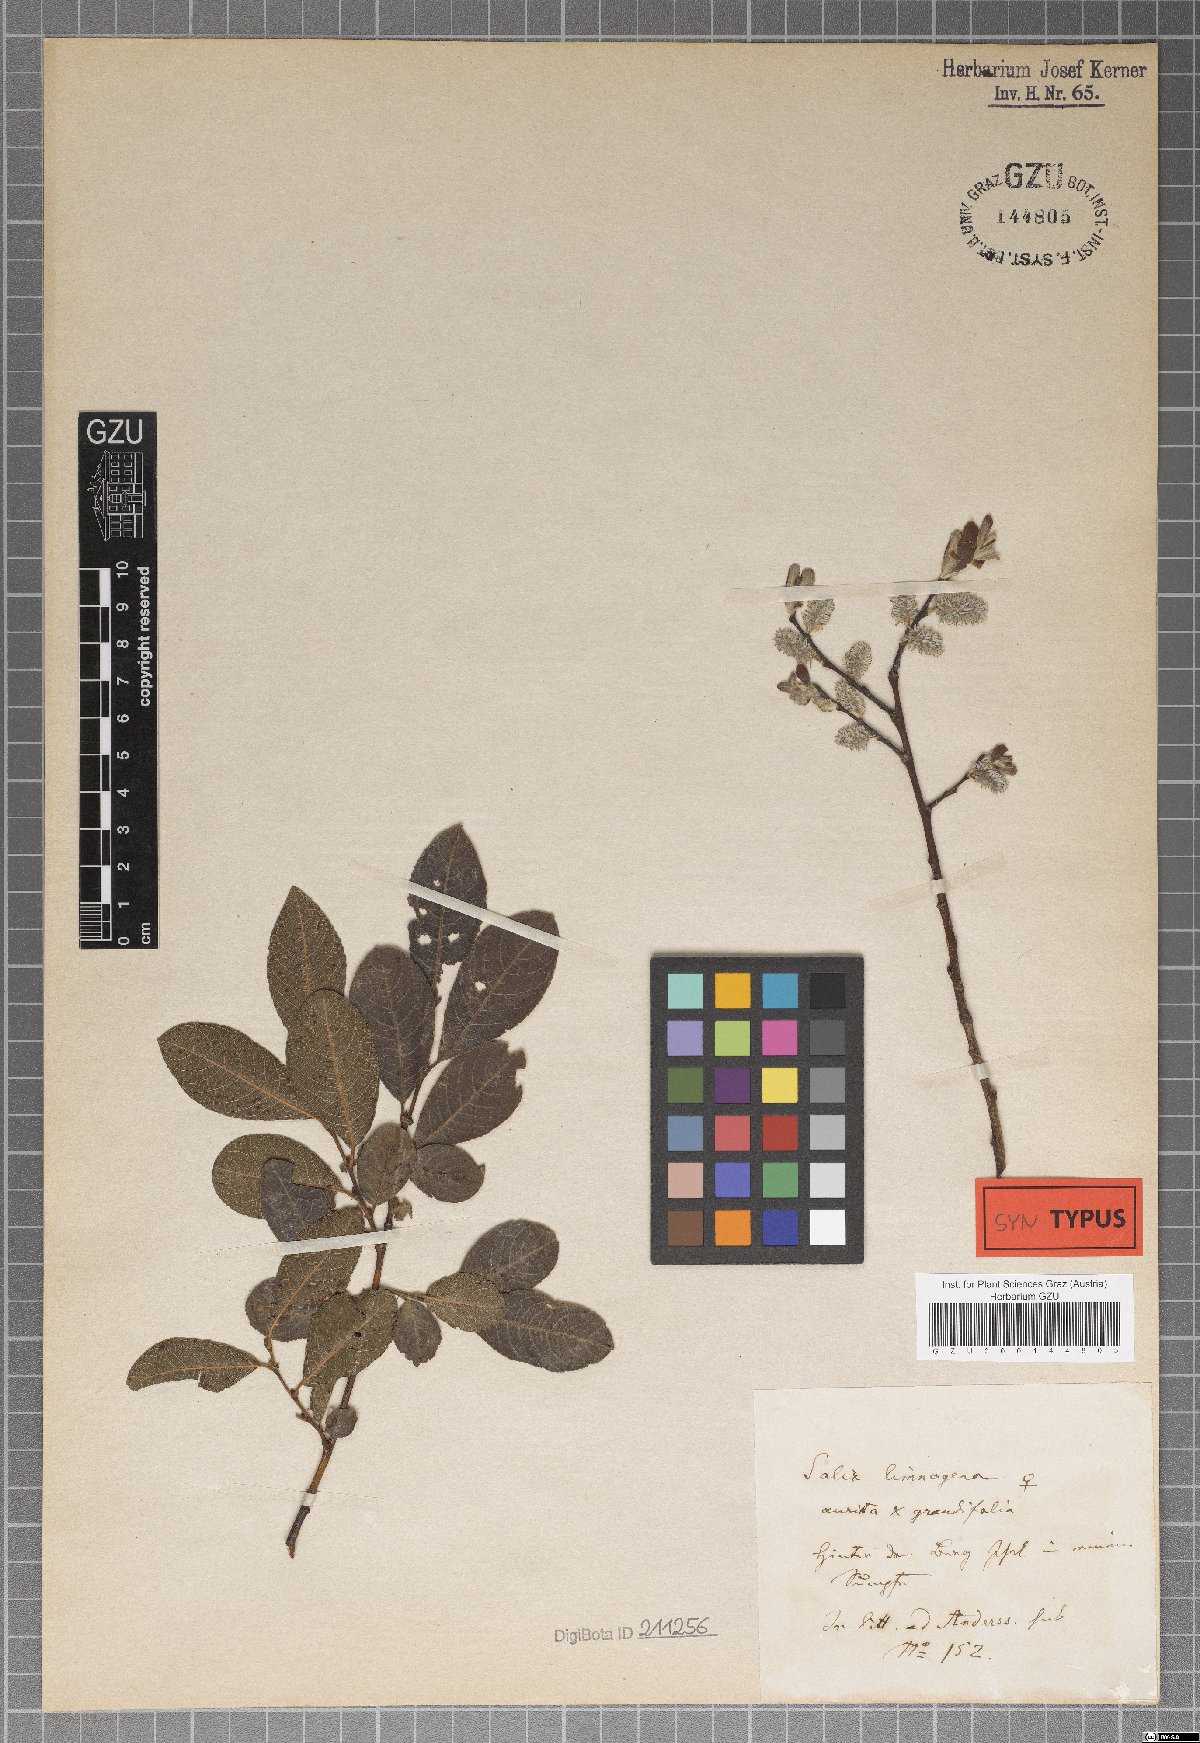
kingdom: Plantae
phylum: Tracheophyta
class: Magnoliopsida
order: Malpighiales
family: Salicaceae
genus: Salix
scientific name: Salix limnogena
